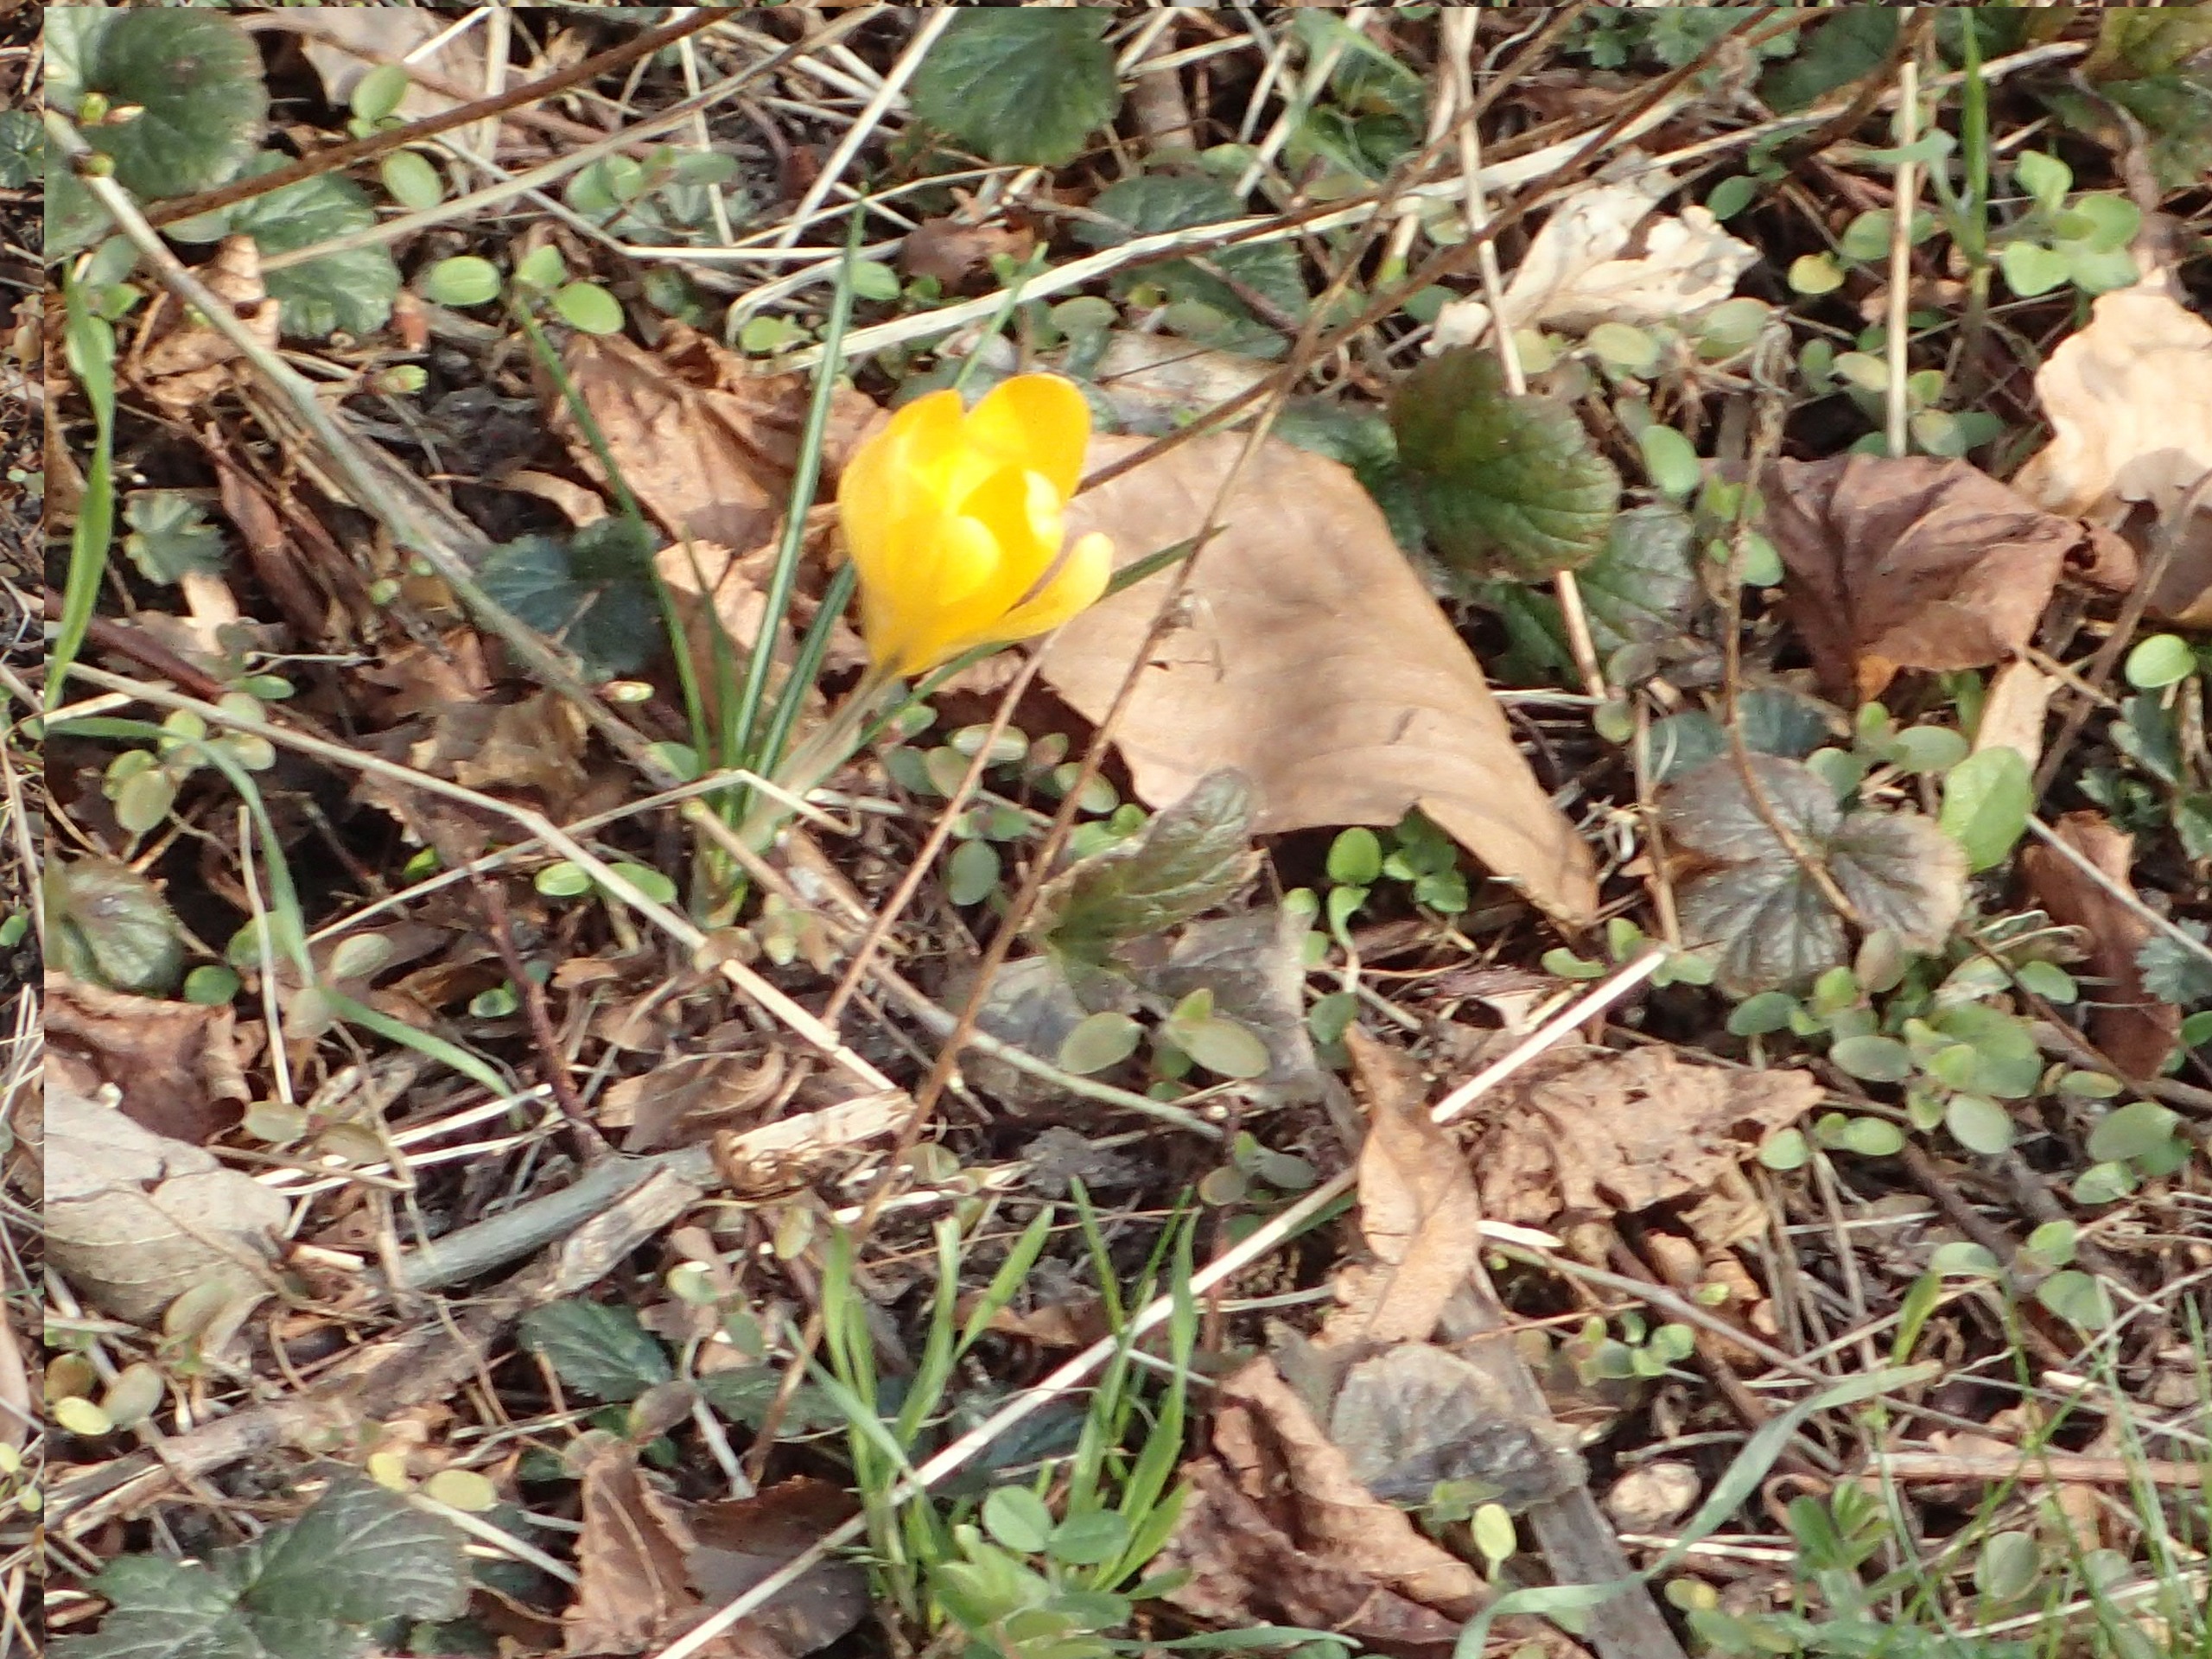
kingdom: Plantae
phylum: Tracheophyta
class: Liliopsida
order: Asparagales
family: Iridaceae
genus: Crocus
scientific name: Crocus luteus
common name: Gul krokus
